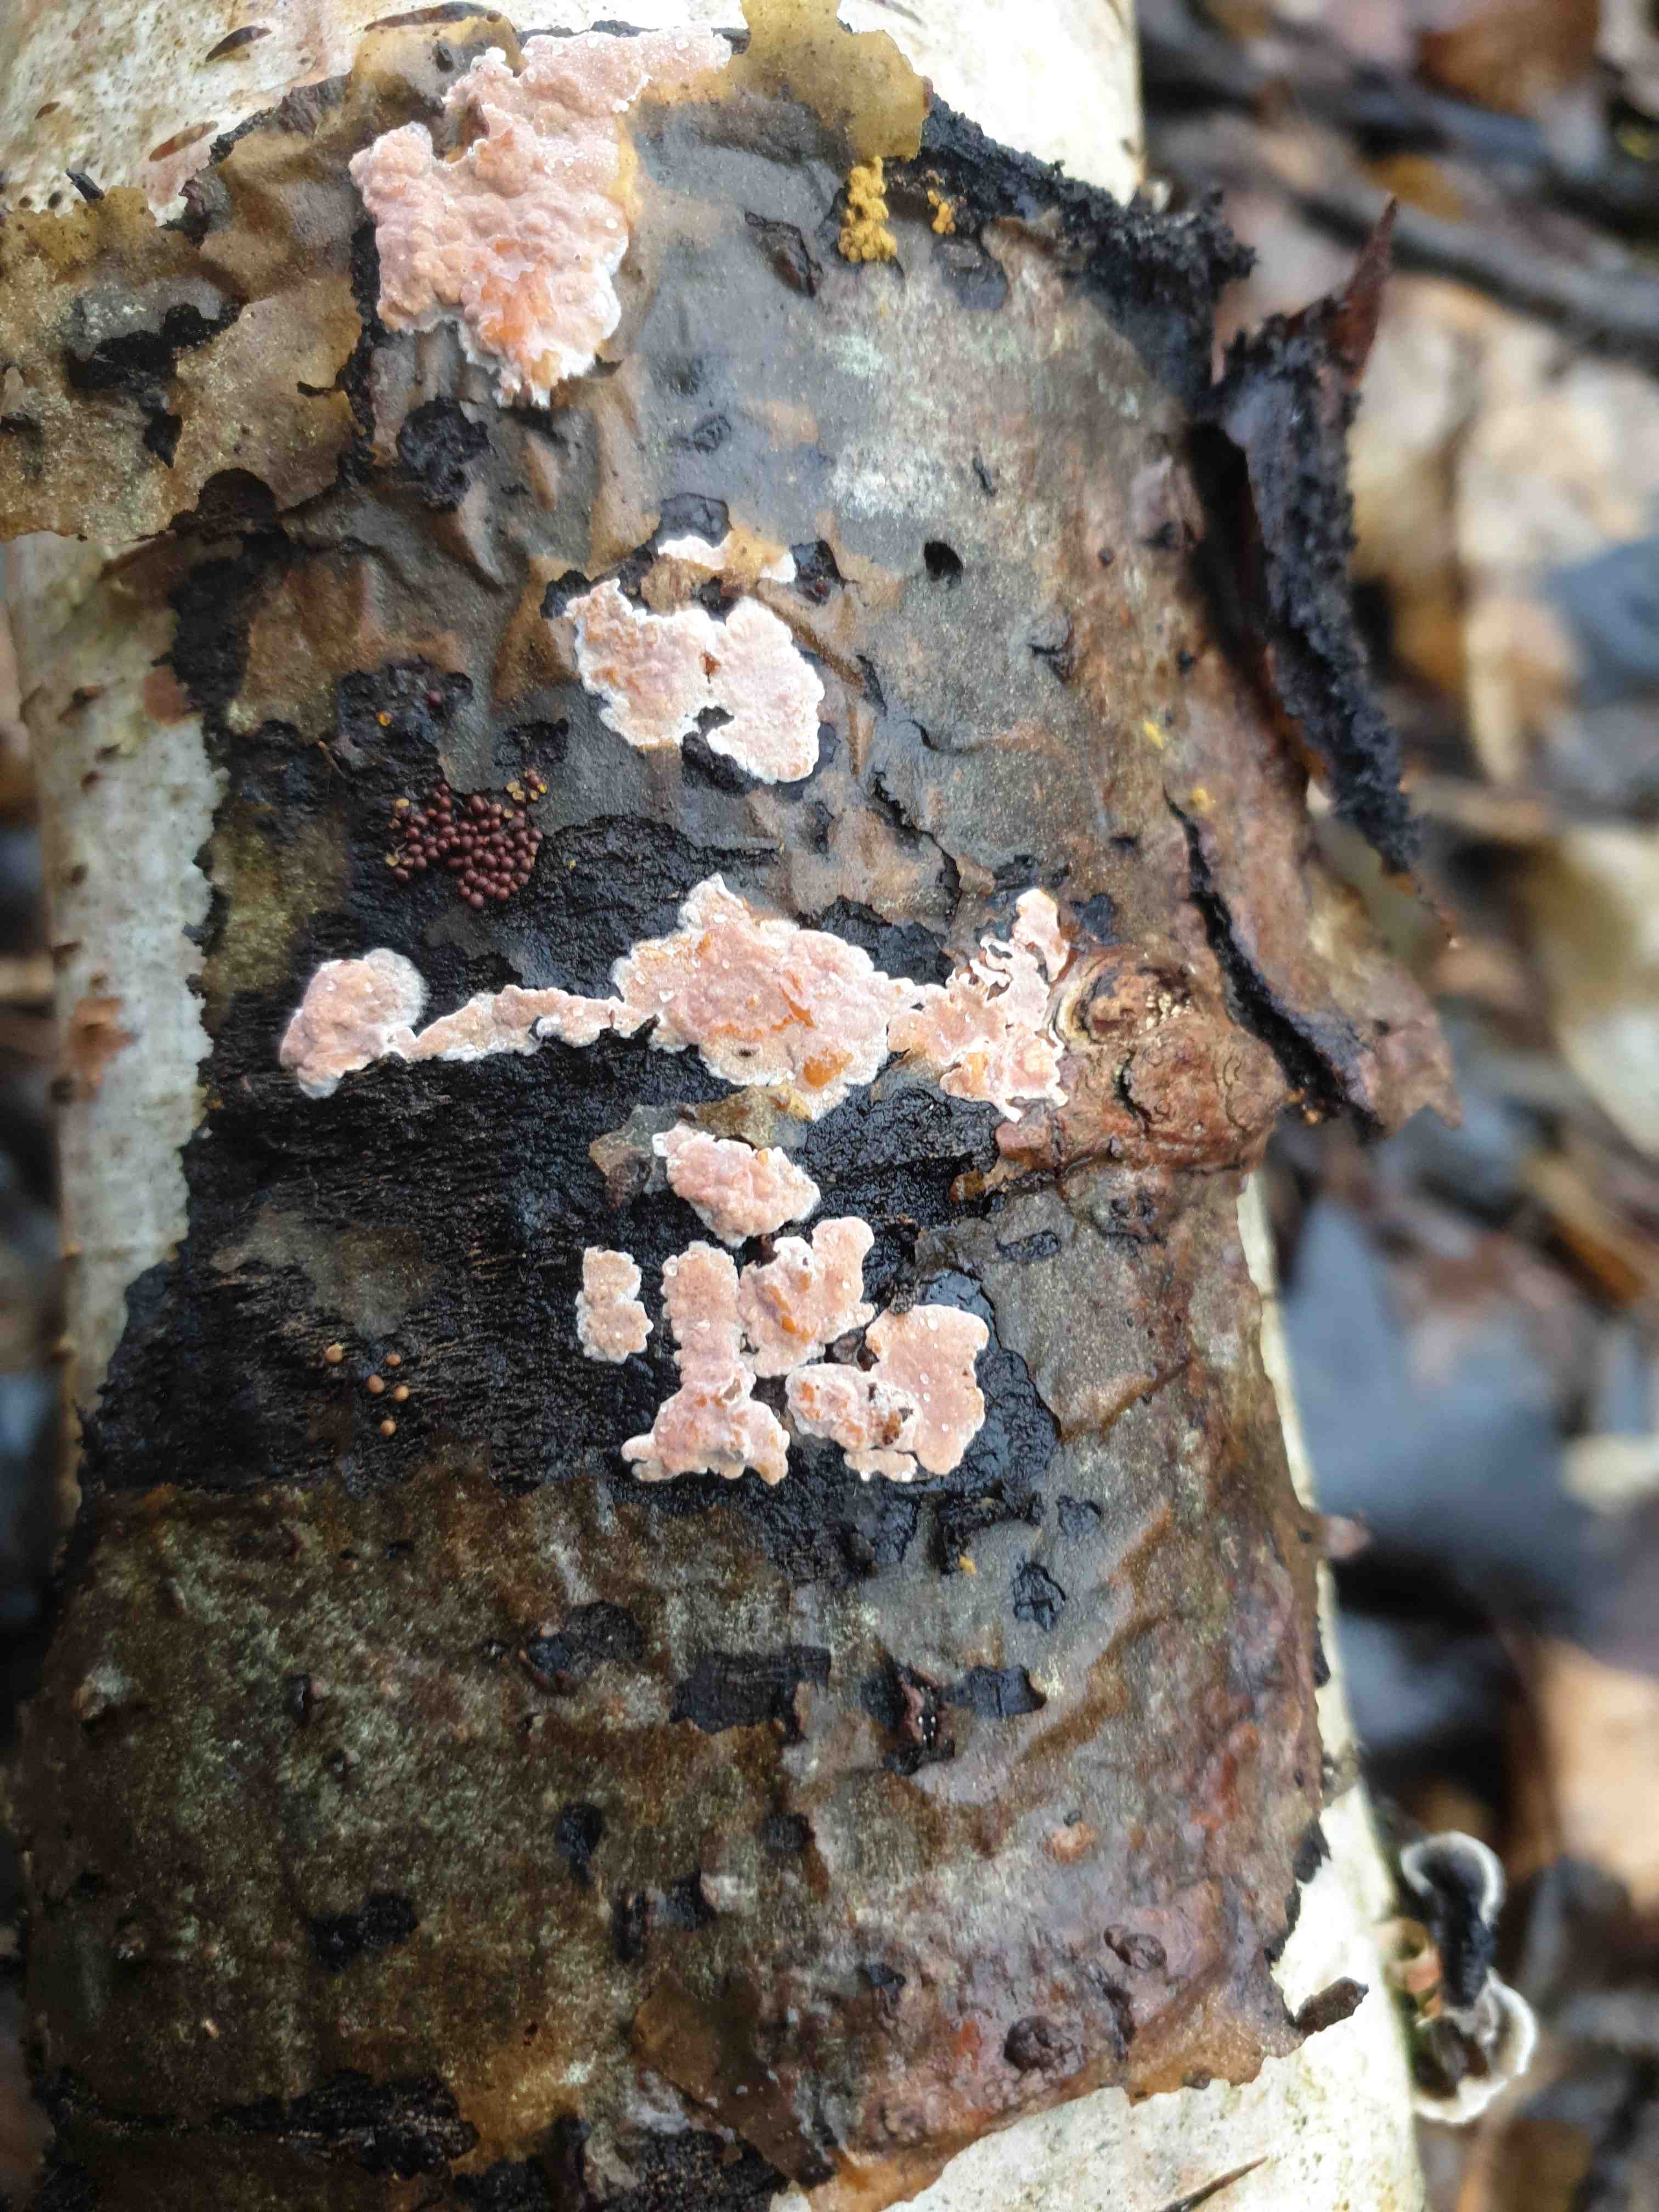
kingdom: Fungi
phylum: Basidiomycota
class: Agaricomycetes
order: Russulales
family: Peniophoraceae
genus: Peniophora
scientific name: Peniophora polygonia
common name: polygon-voksskind
